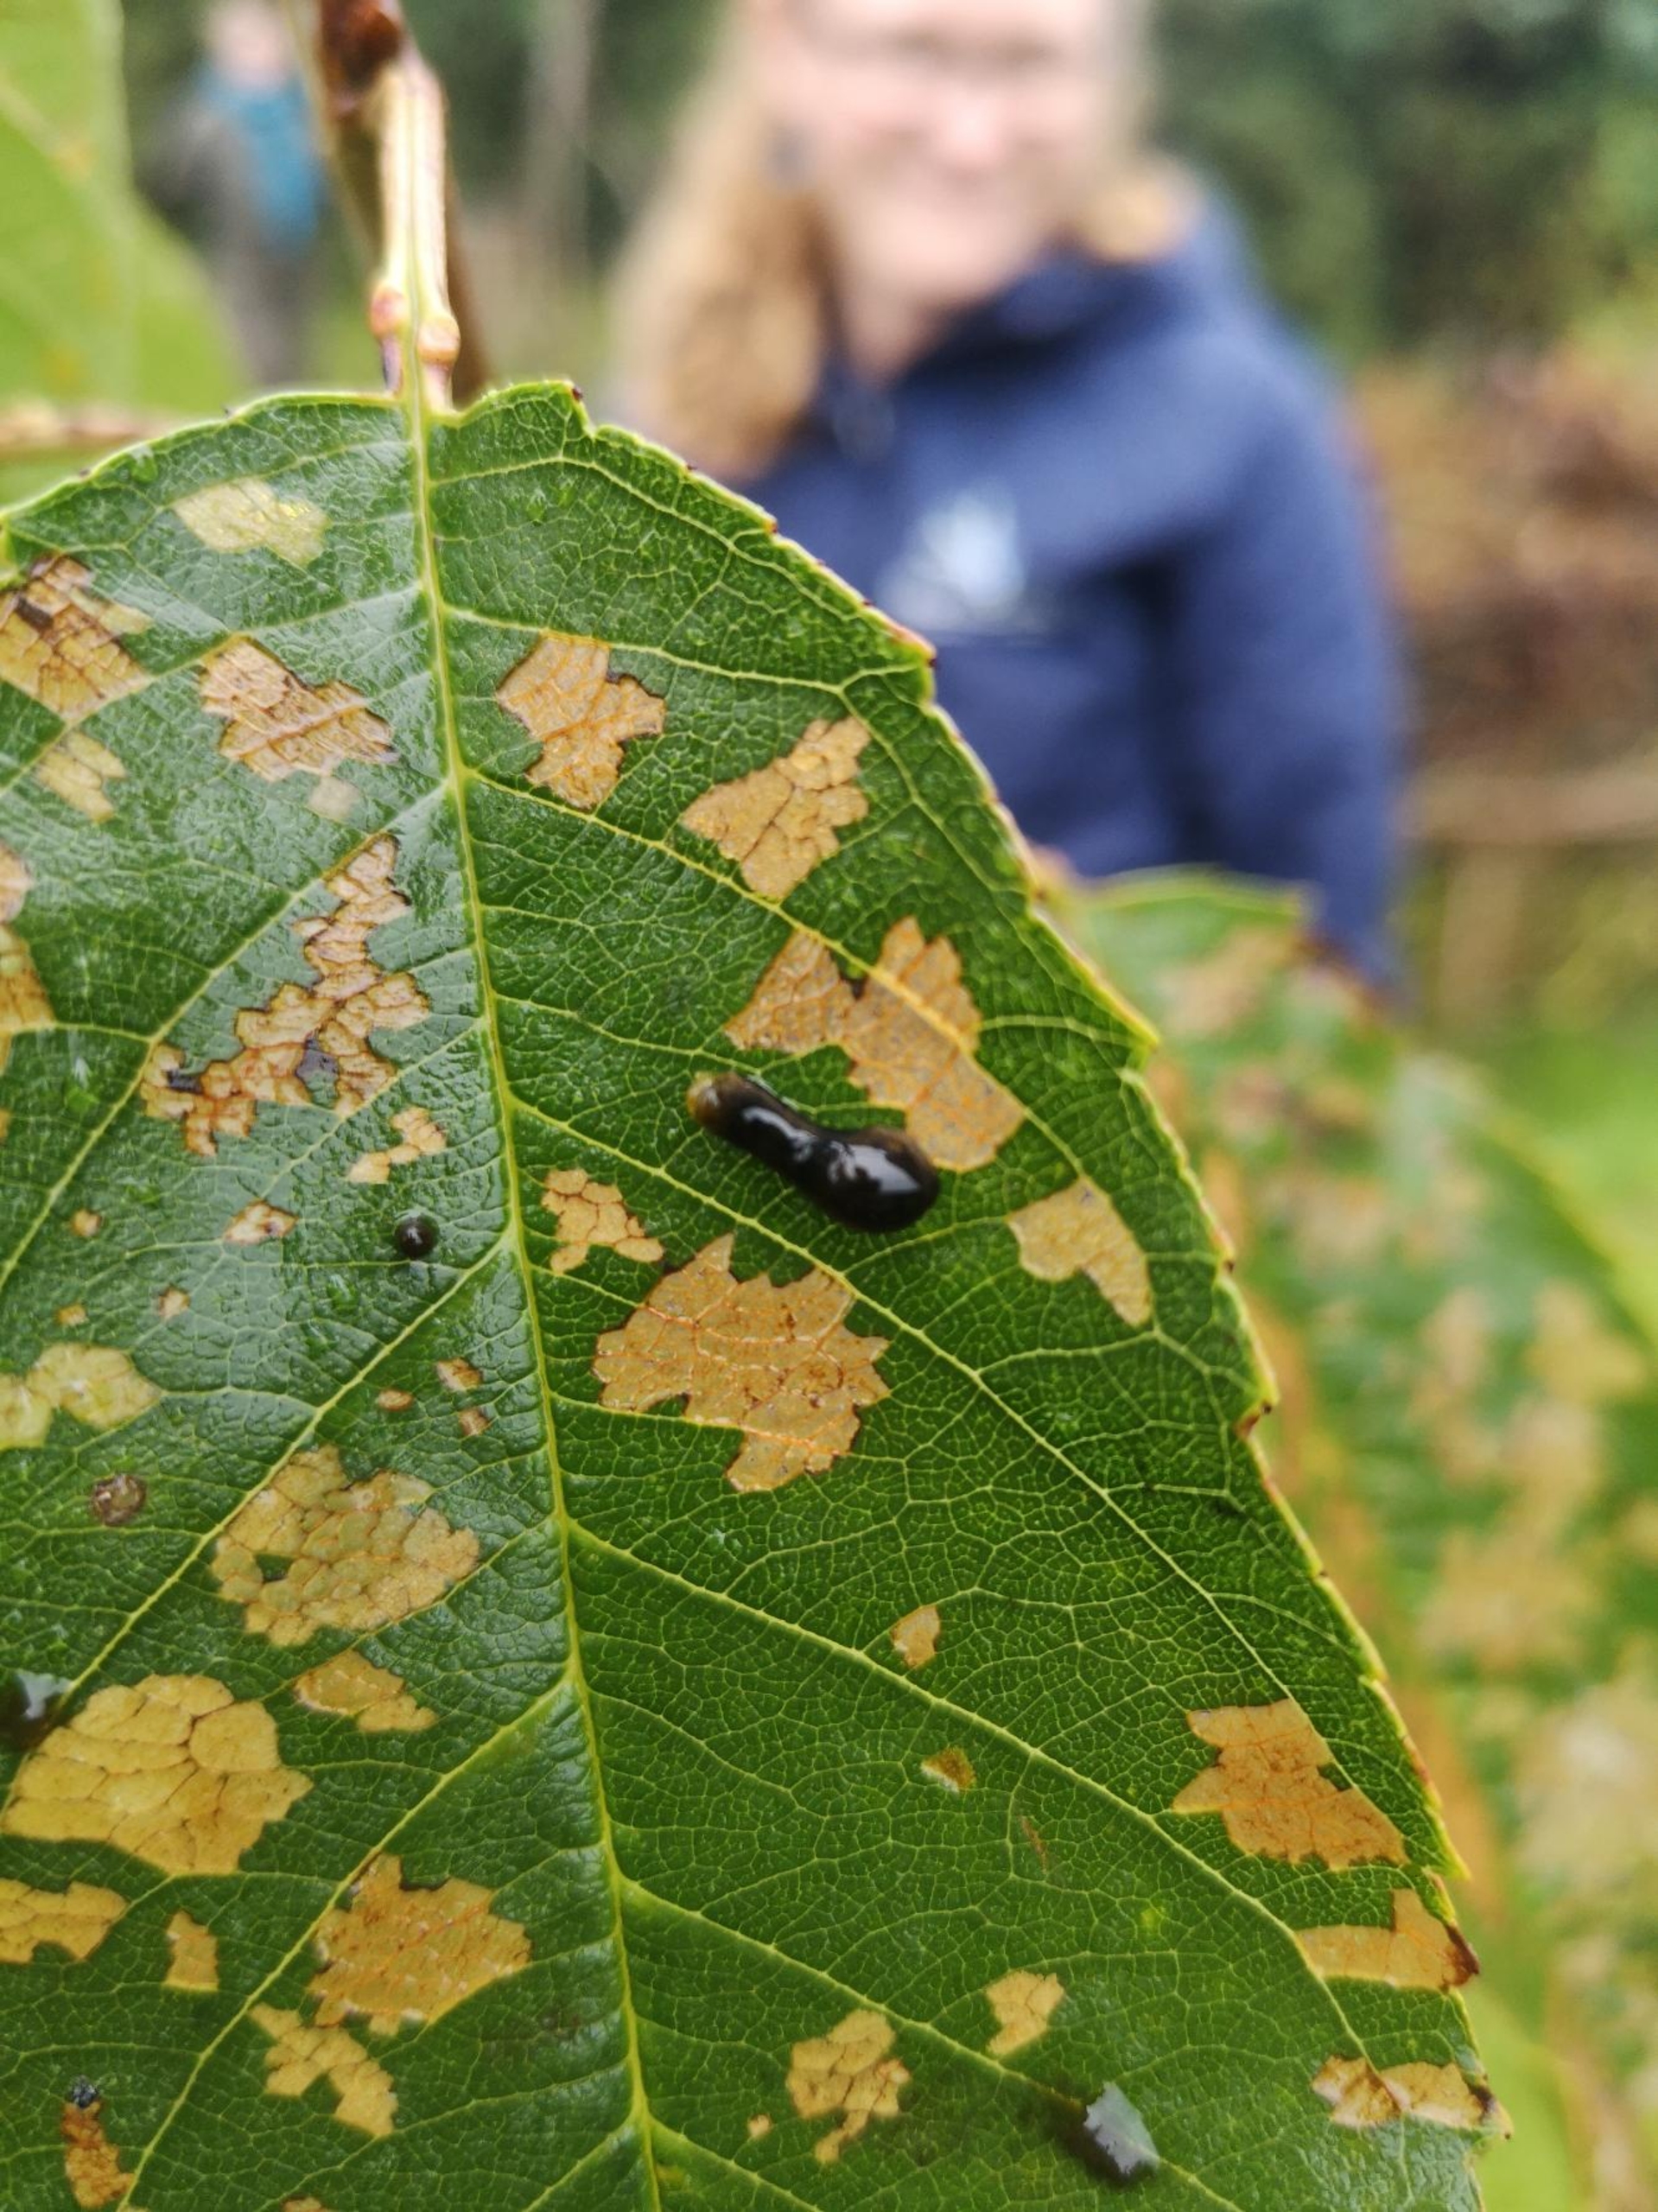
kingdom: Animalia
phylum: Arthropoda
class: Insecta
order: Hymenoptera
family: Tenthredinidae
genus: Caliroa
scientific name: Caliroa cerasi
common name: Frugttræbladhveps
